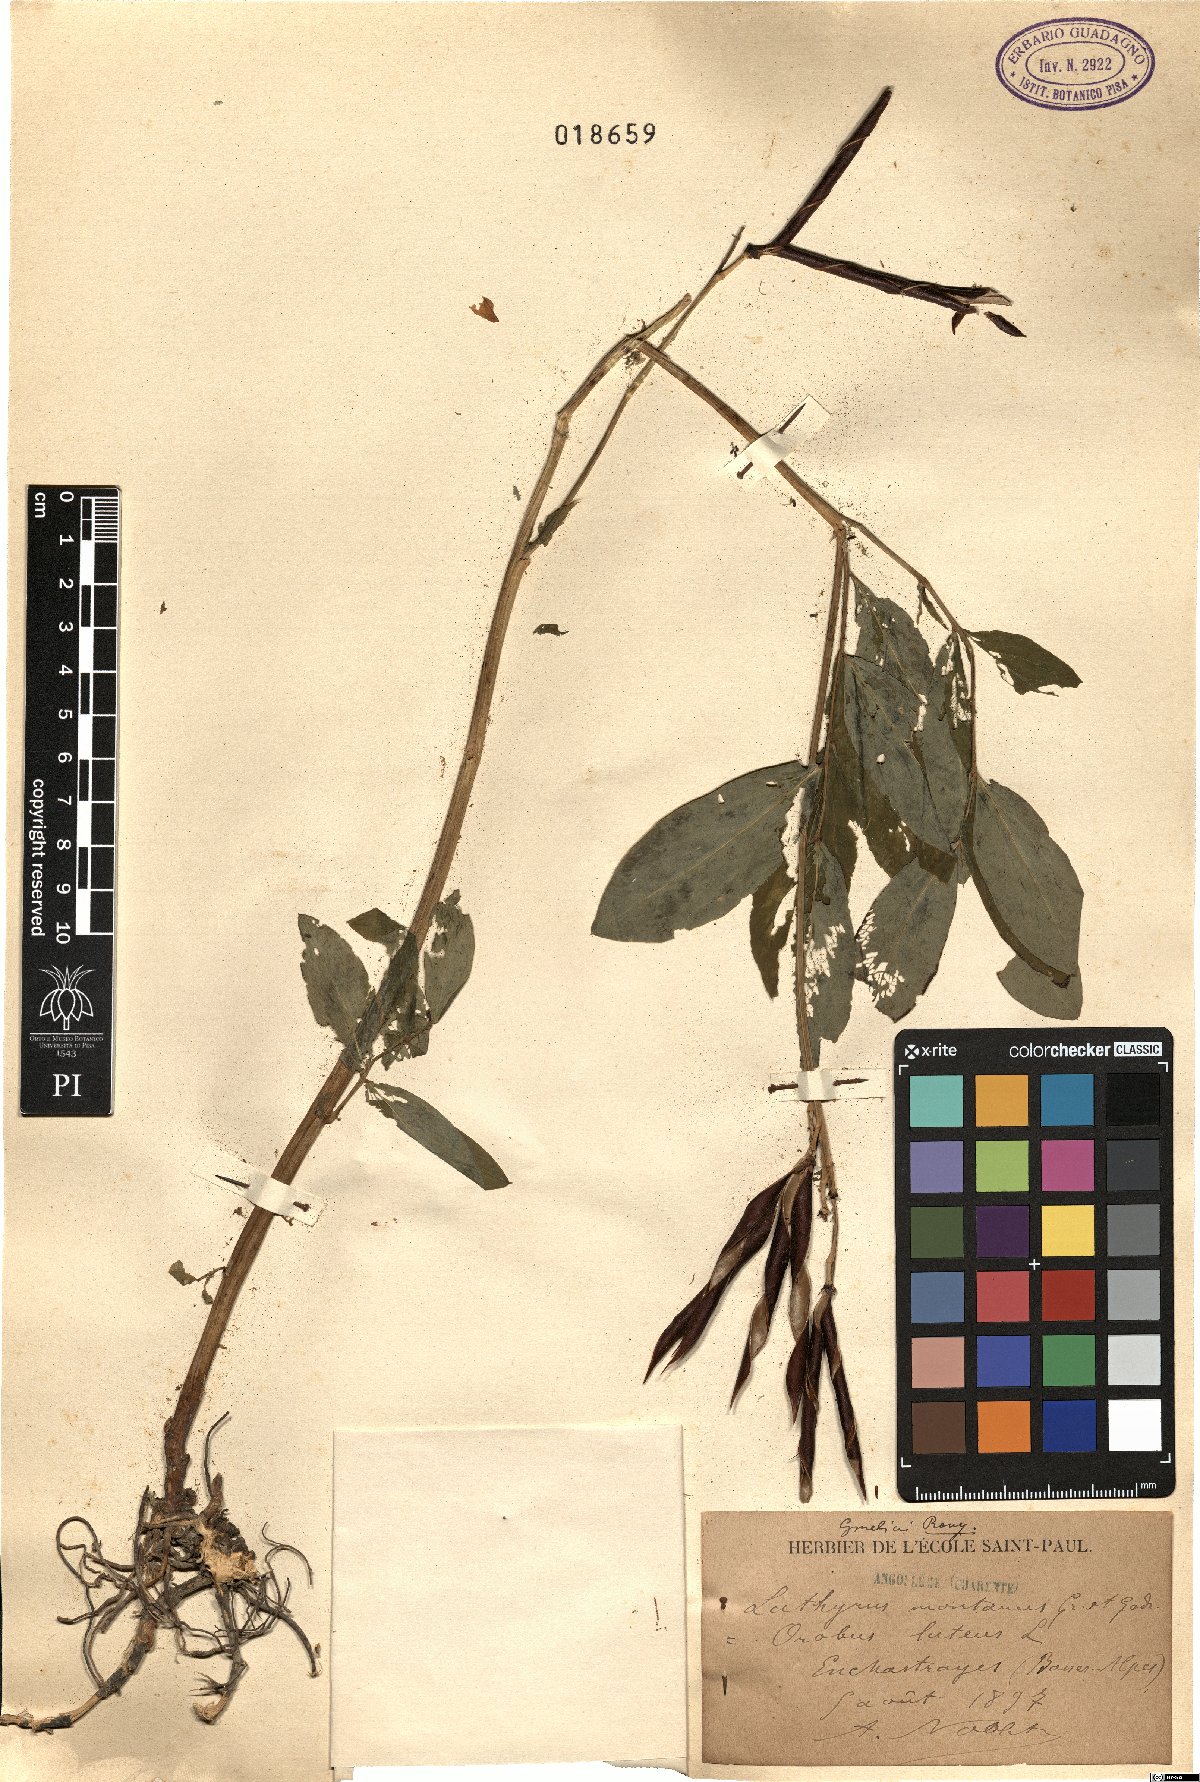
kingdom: Plantae
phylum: Tracheophyta
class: Magnoliopsida
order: Fabales
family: Fabaceae
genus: Lathyrus
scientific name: Lathyrus linifolius
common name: Bitter-vetch
